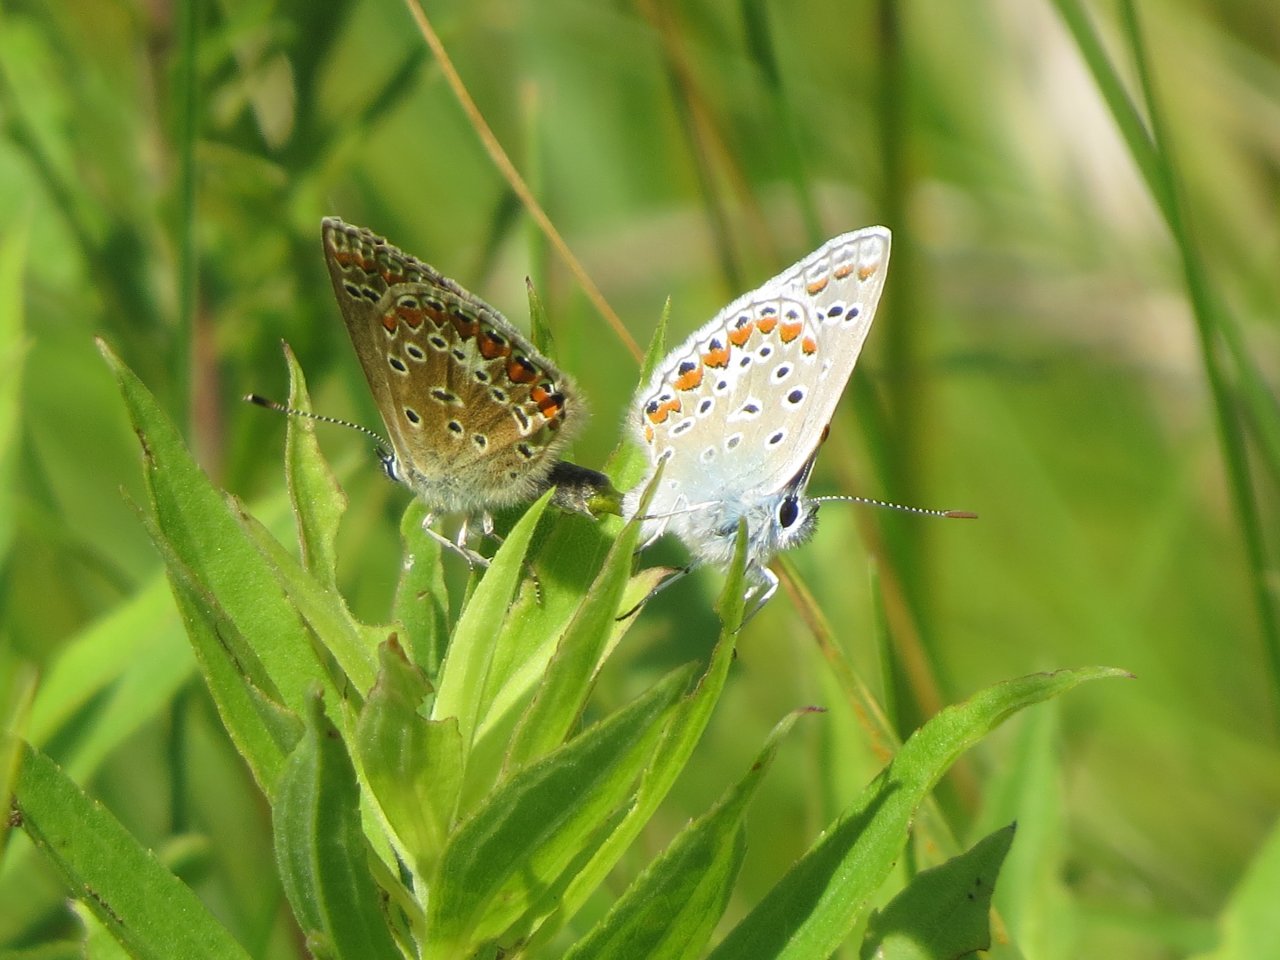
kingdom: Animalia
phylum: Arthropoda
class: Insecta
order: Lepidoptera
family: Lycaenidae
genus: Polyommatus
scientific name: Polyommatus icarus
